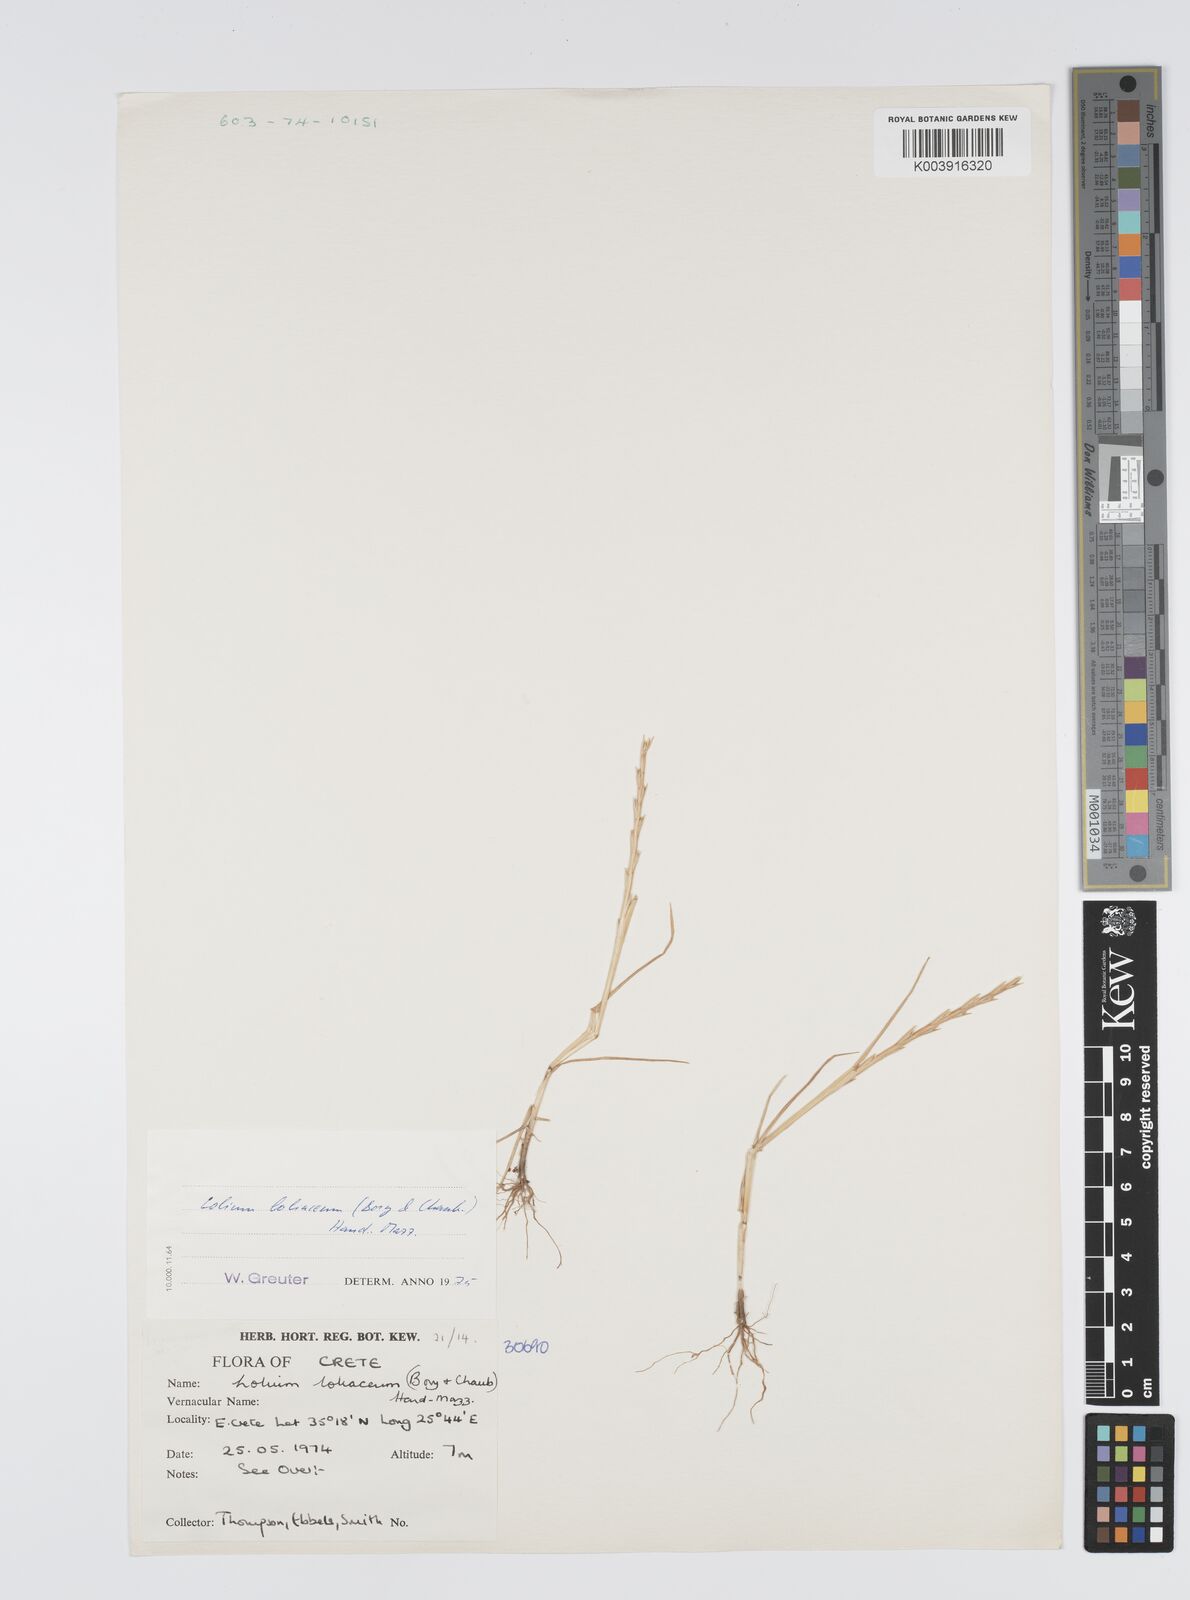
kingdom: Plantae
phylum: Tracheophyta
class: Liliopsida
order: Poales
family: Poaceae
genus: Lolium
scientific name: Lolium rigidum
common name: Wimmera ryegrass
